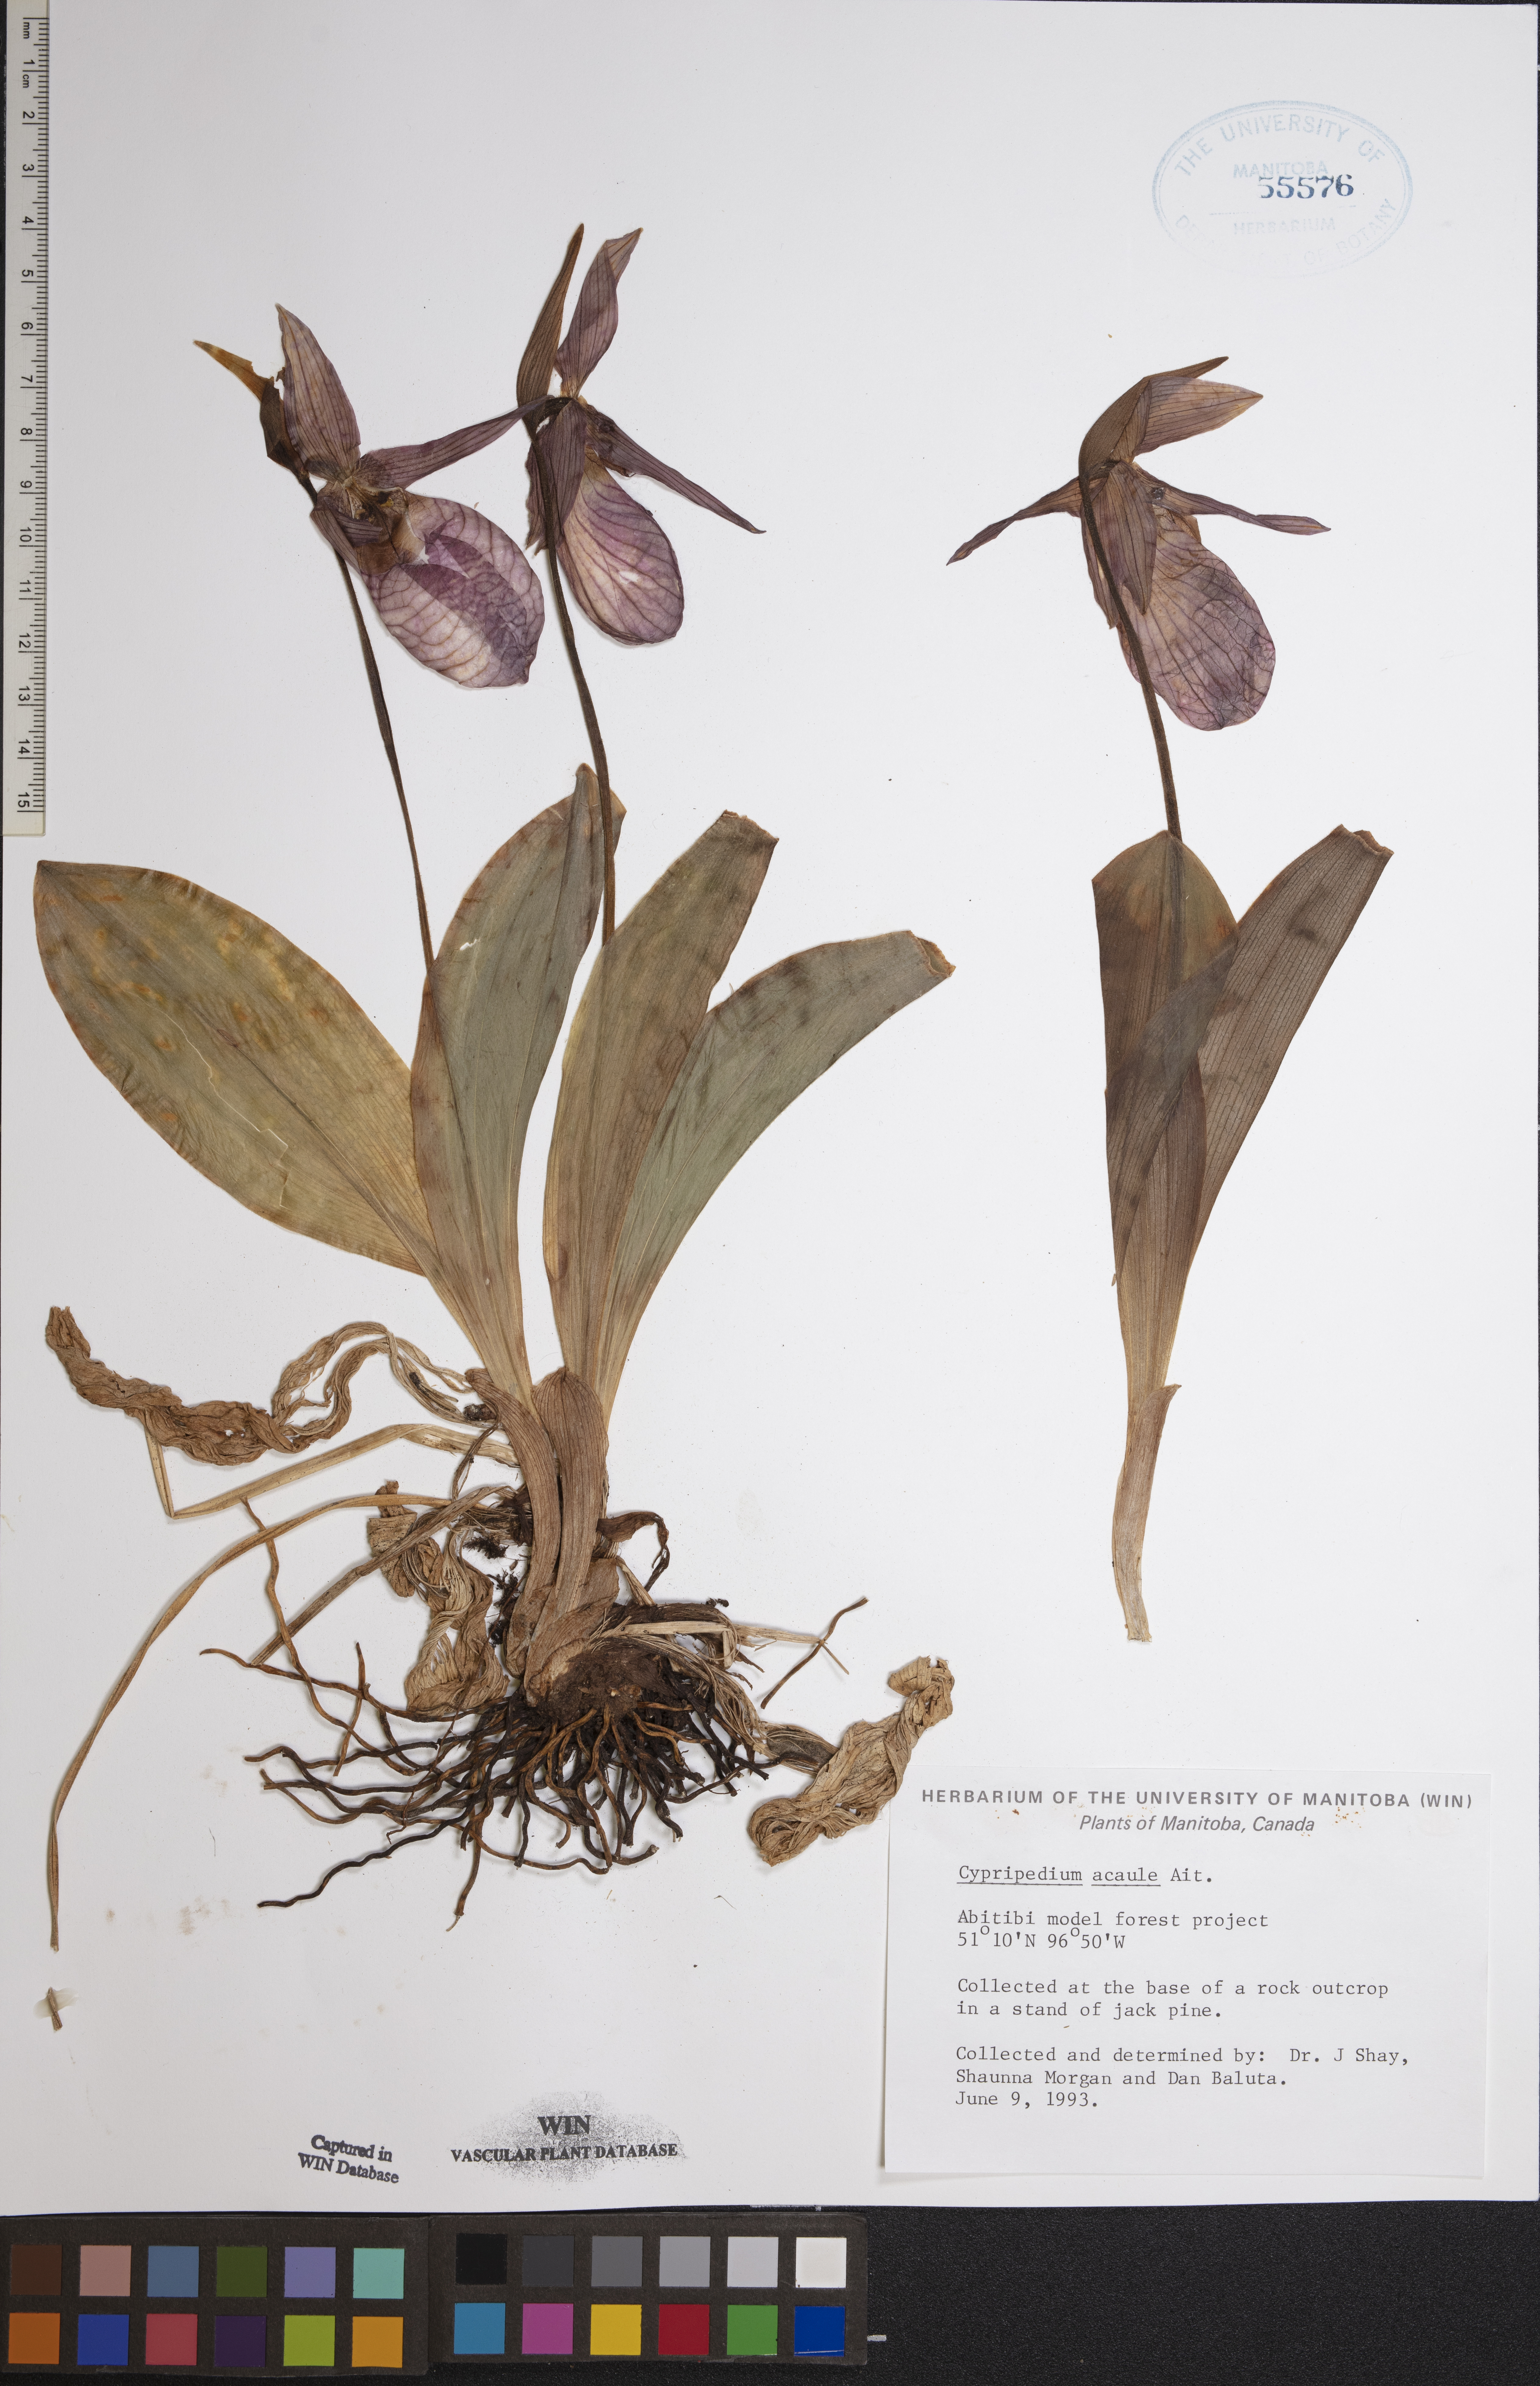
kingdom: Plantae
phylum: Tracheophyta
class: Liliopsida
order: Asparagales
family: Orchidaceae
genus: Cypripedium
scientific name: Cypripedium acaule
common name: Pink lady's-slipper
